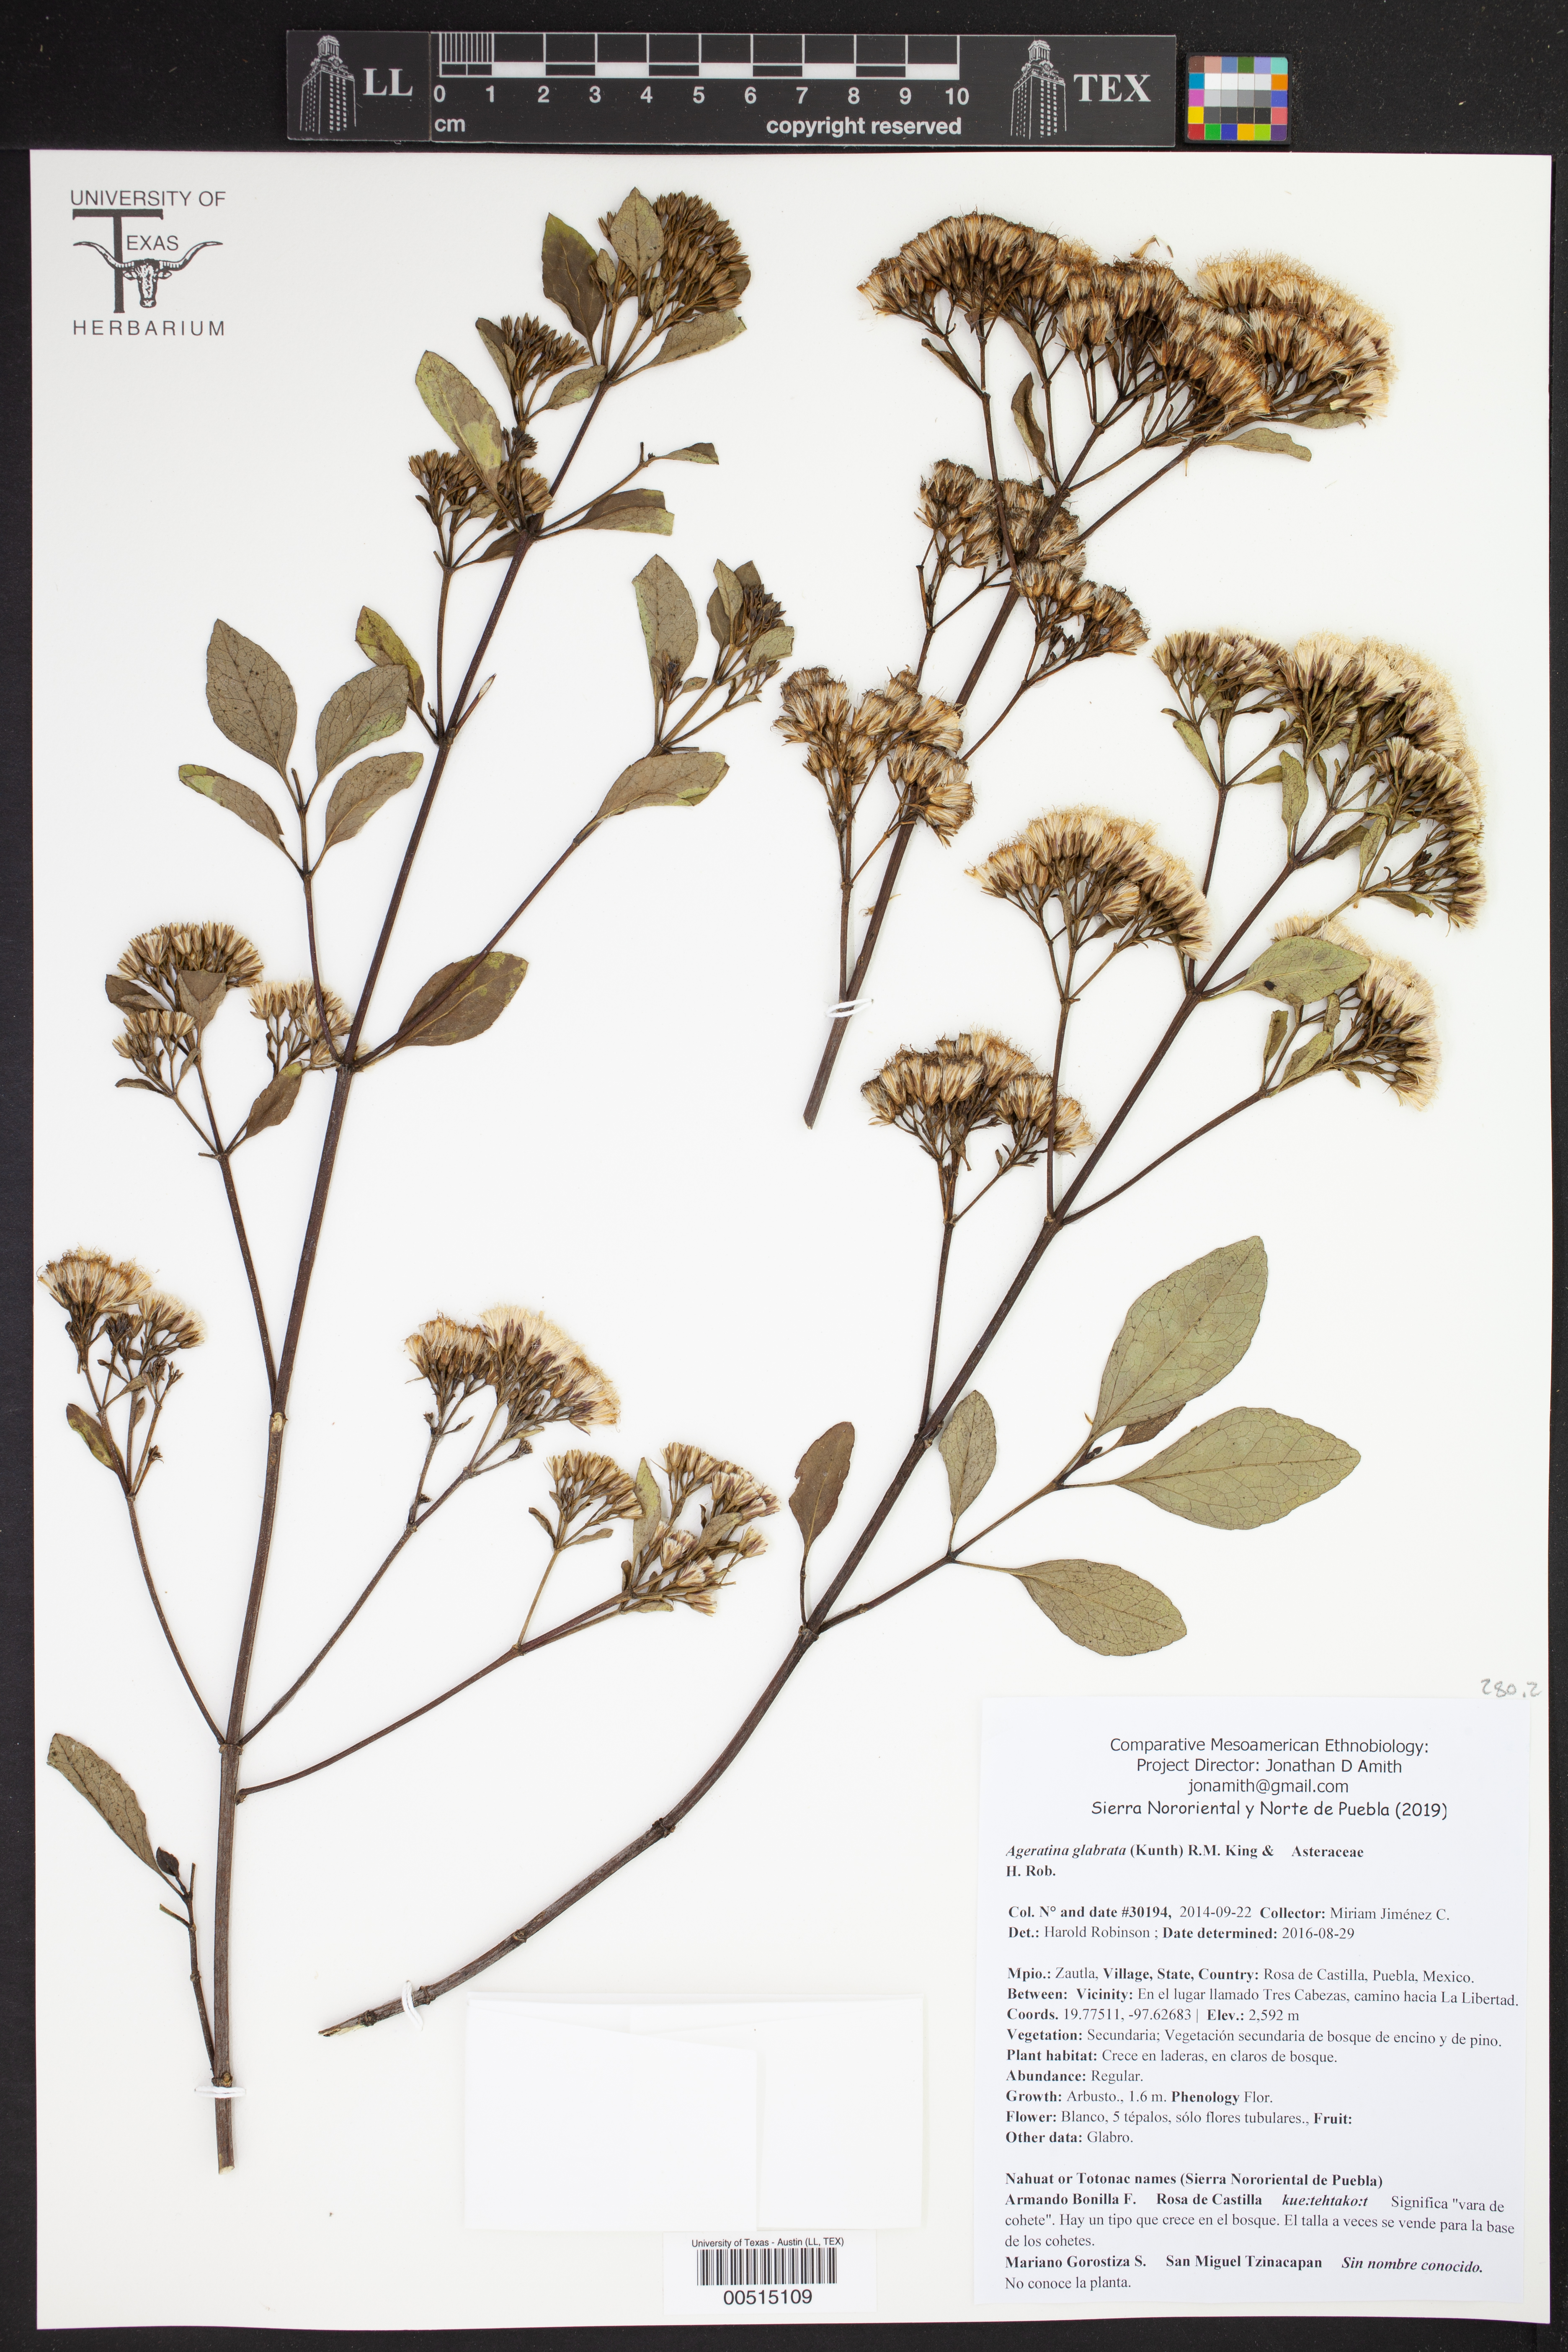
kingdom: Plantae
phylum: Tracheophyta
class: Magnoliopsida
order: Asterales
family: Asteraceae
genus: Ageratina
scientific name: Ageratina glabrata
